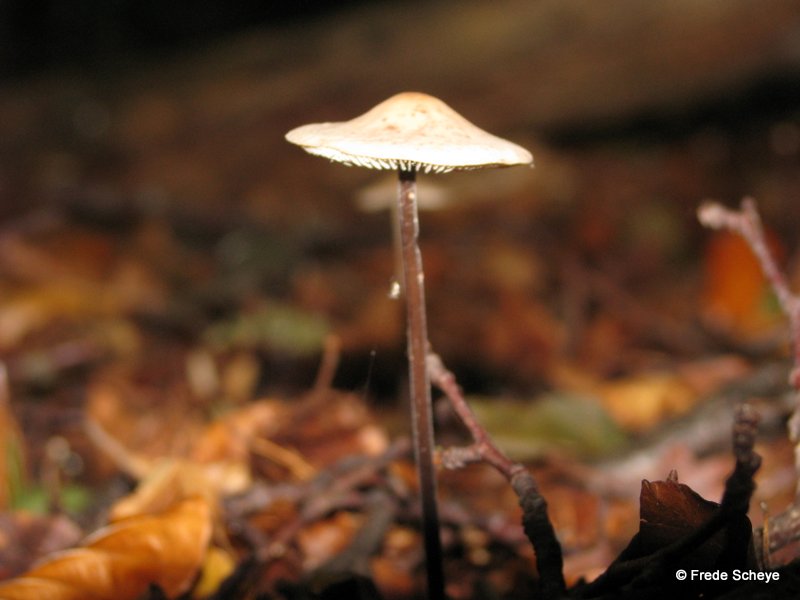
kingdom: Fungi
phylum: Basidiomycota
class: Agaricomycetes
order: Agaricales
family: Omphalotaceae
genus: Mycetinis
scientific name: Mycetinis alliaceus
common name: stor løghat
